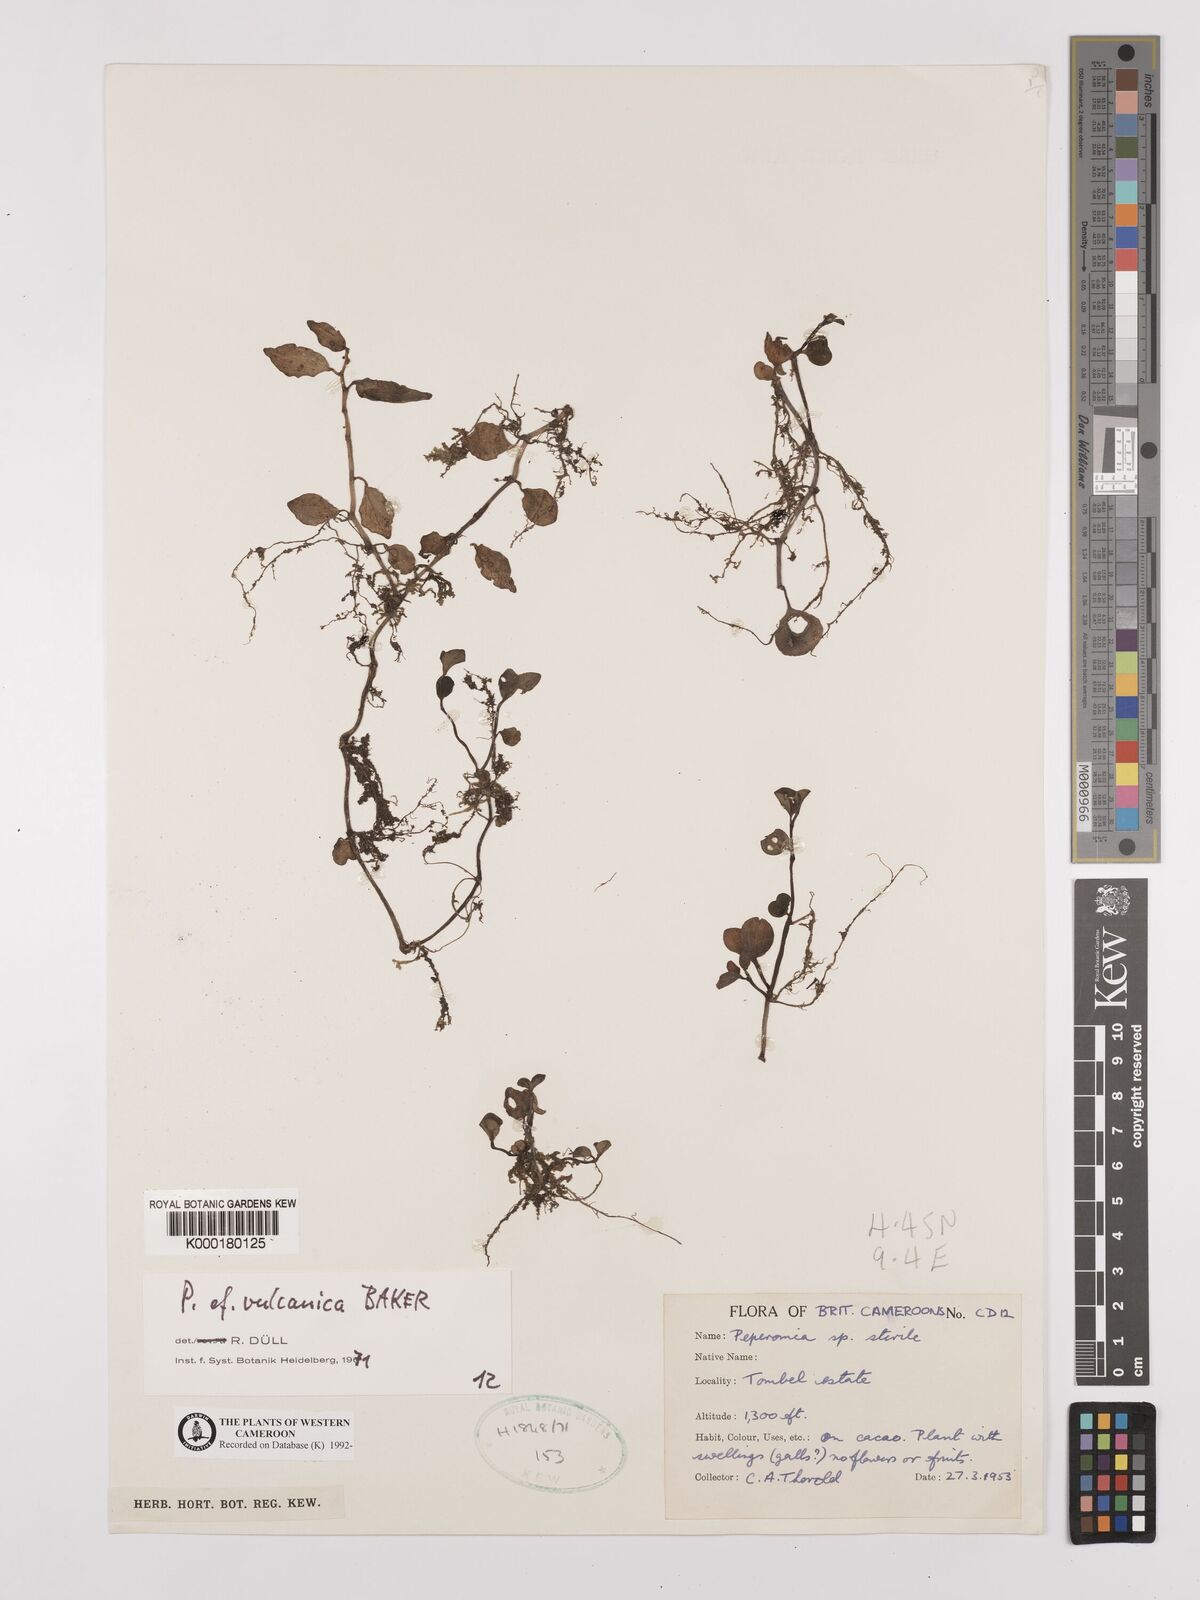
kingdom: Plantae
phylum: Tracheophyta
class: Magnoliopsida
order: Piperales
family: Piperaceae
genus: Peperomia
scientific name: Peperomia vulcanica
